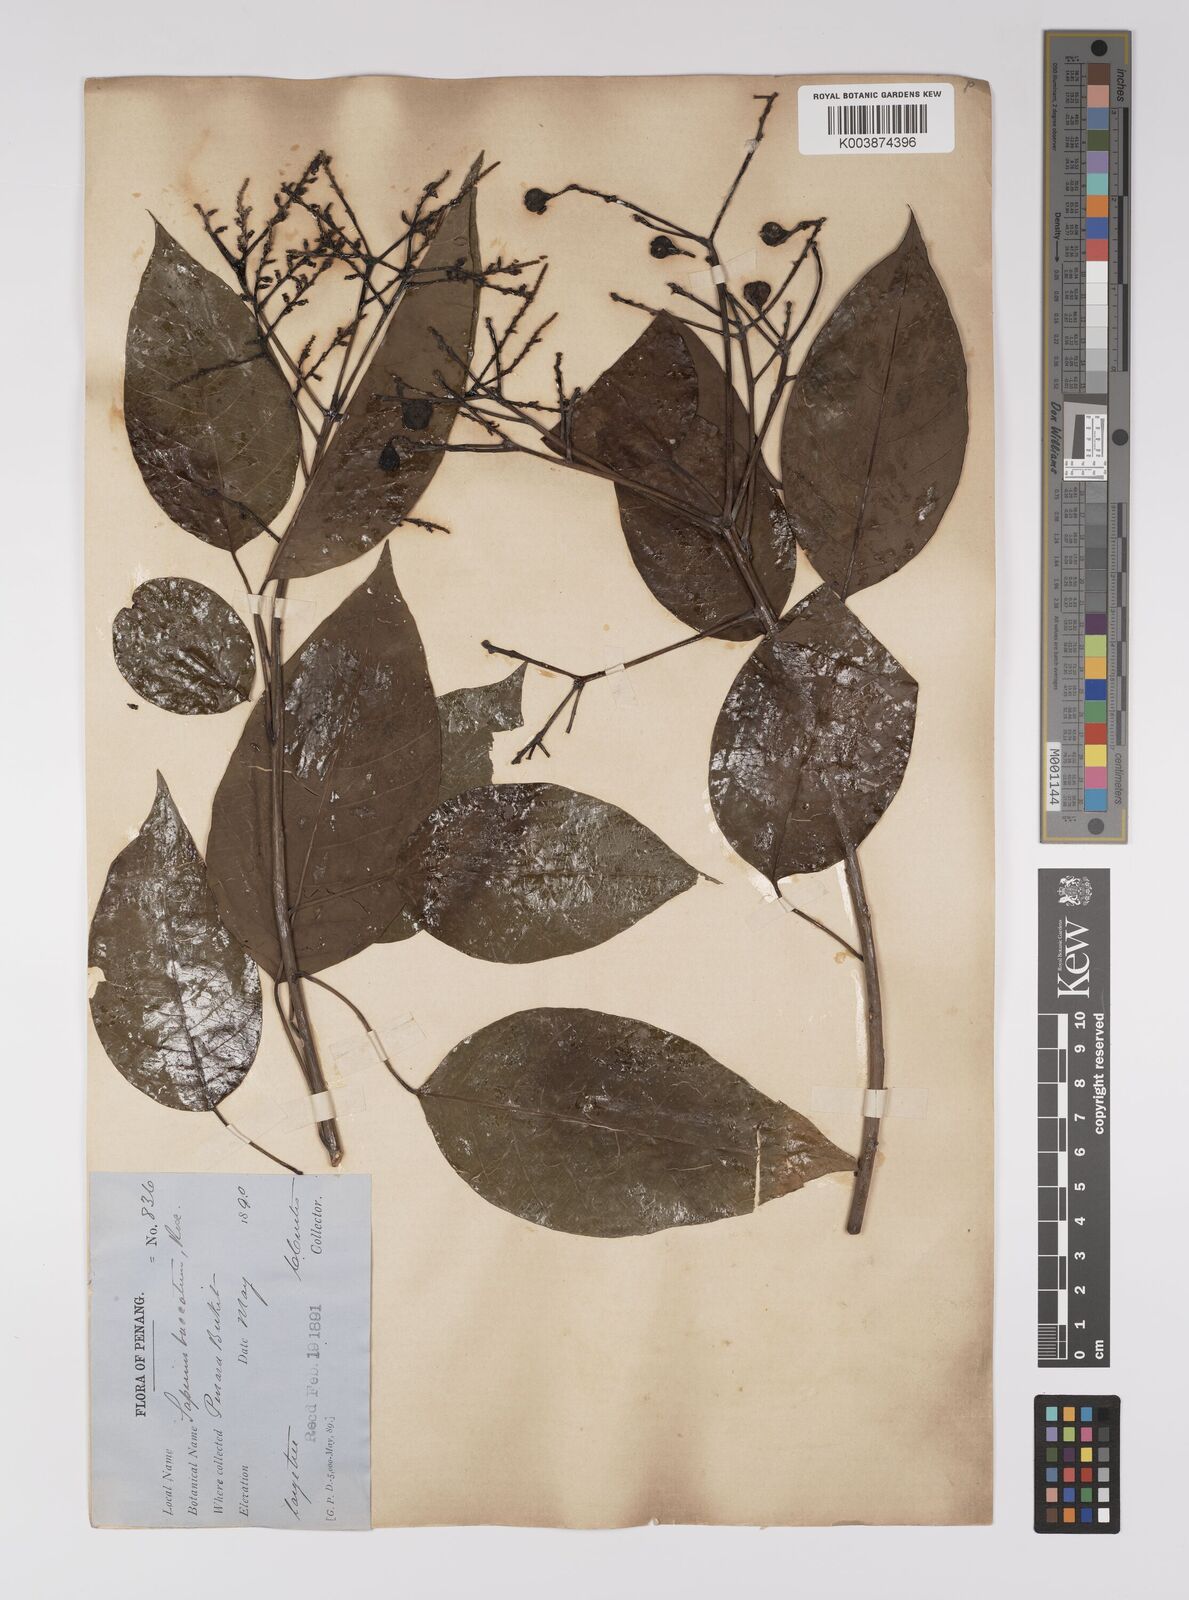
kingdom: Plantae
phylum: Tracheophyta
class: Magnoliopsida
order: Malpighiales
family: Euphorbiaceae
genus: Balakata
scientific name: Balakata baccata
